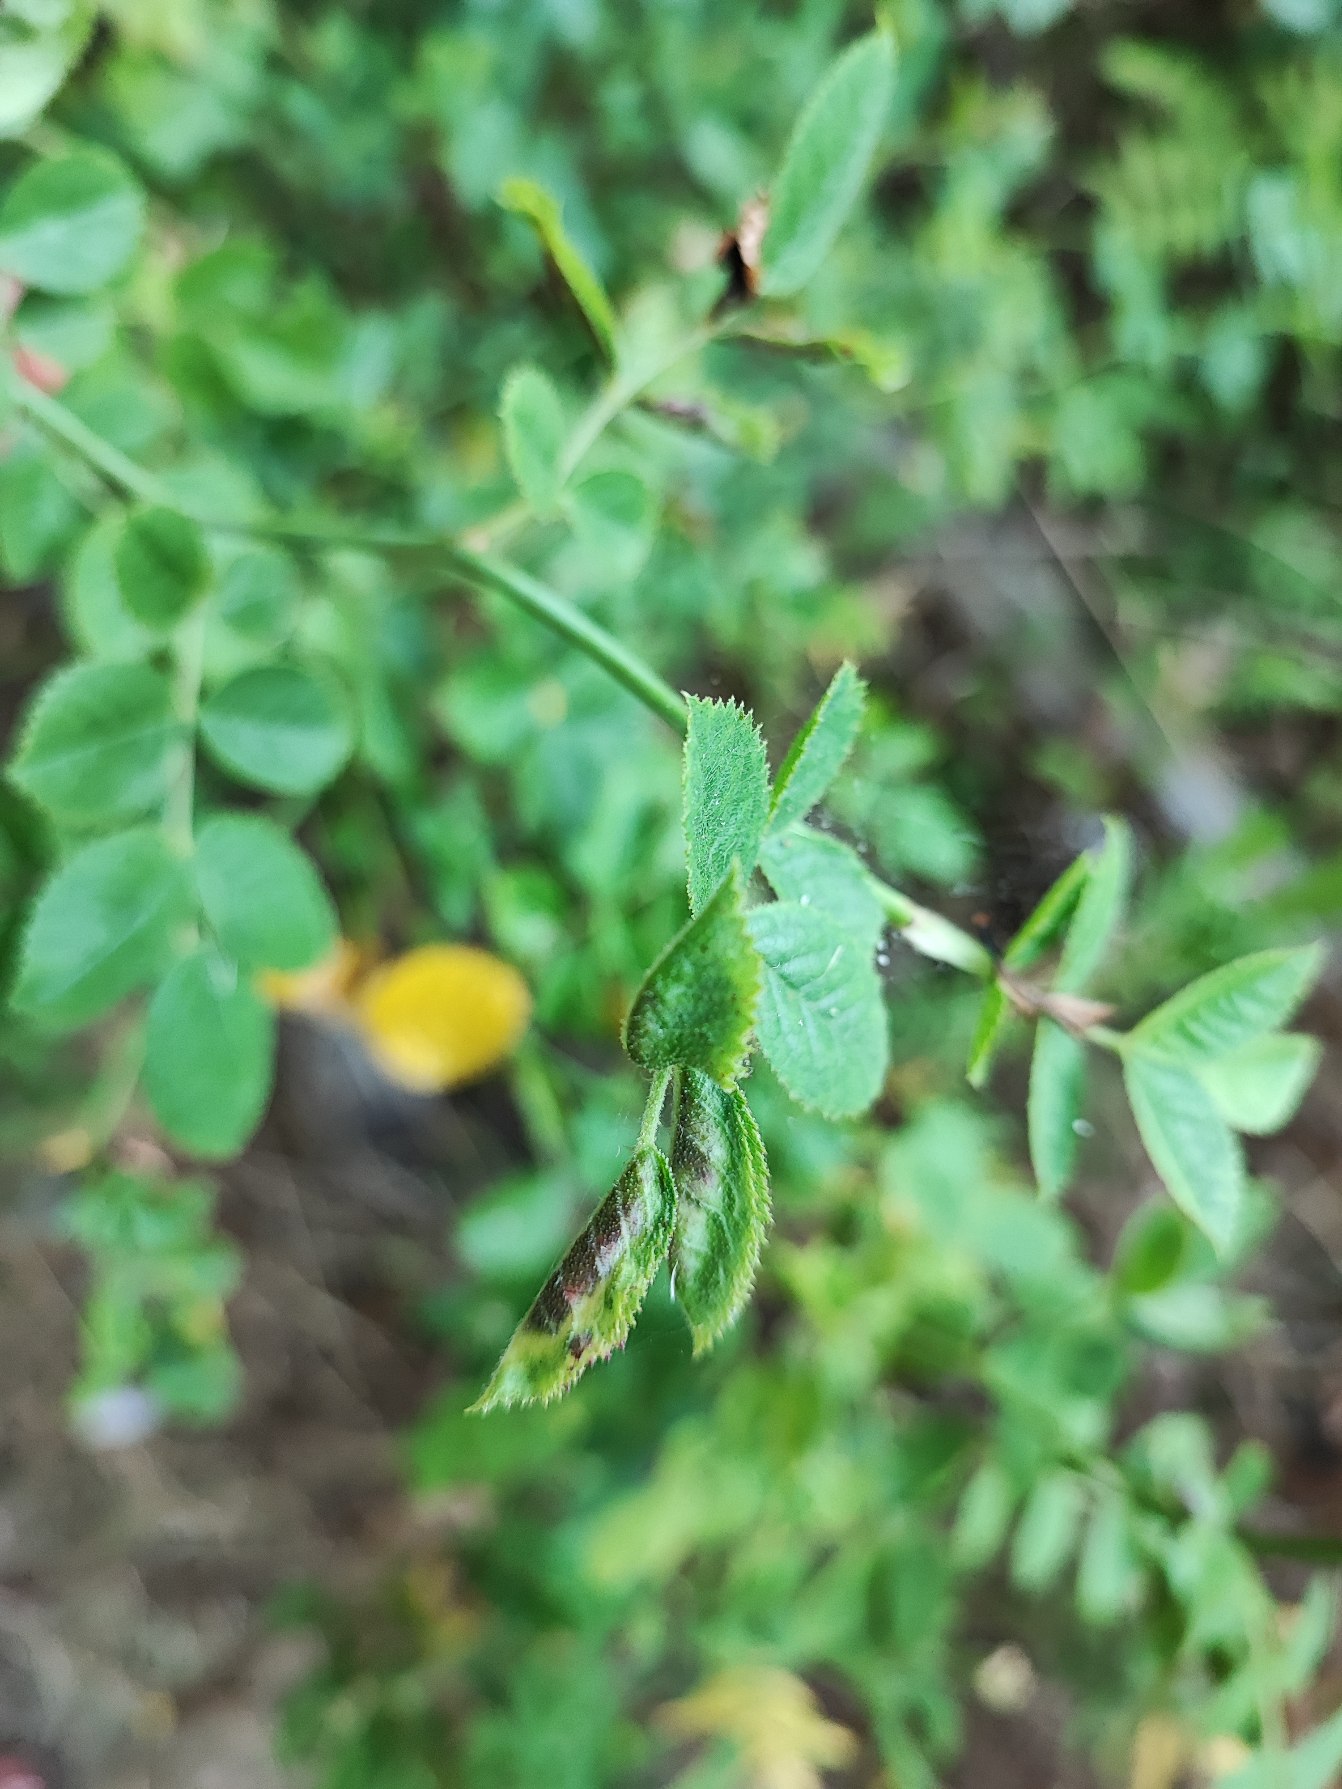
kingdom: Animalia
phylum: Arthropoda
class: Insecta
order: Diptera
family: Cecidomyiidae
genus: Wachtliella
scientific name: Wachtliella rosae
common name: Rosenbladgalmyg
